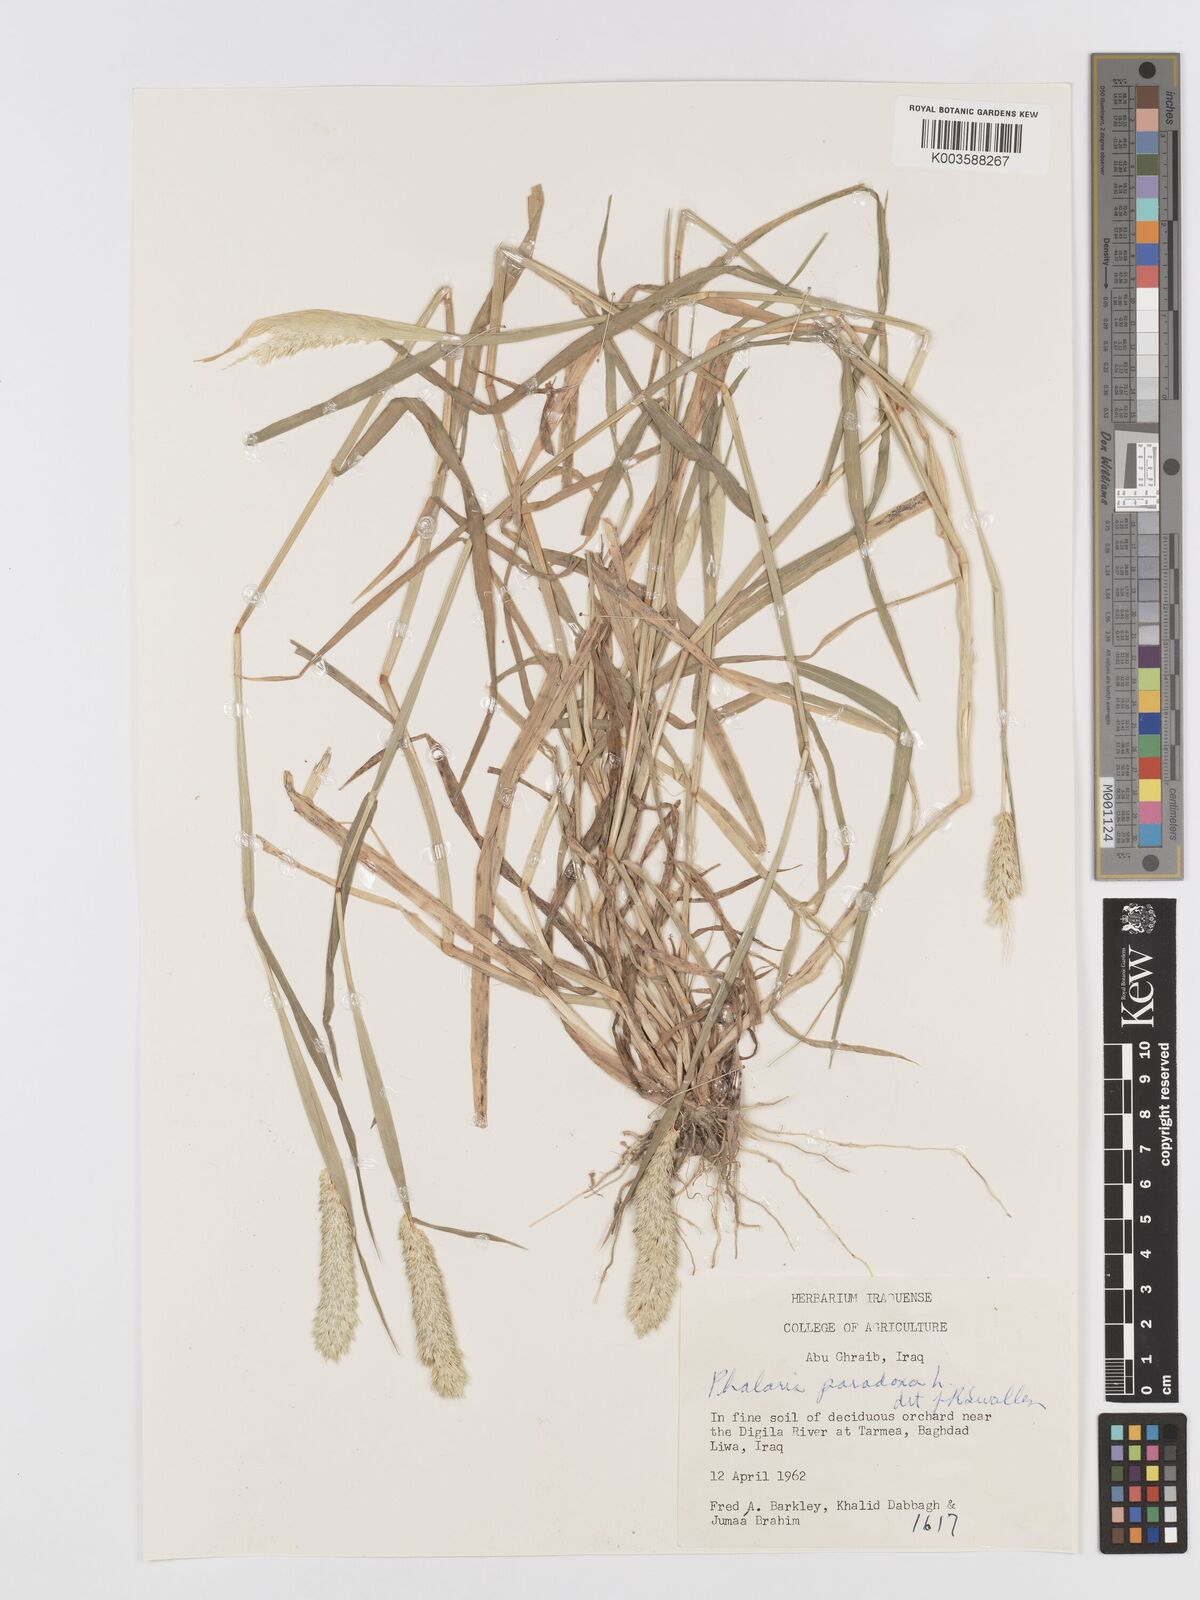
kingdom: Plantae
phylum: Tracheophyta
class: Liliopsida
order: Poales
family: Poaceae
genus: Phalaris
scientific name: Phalaris paradoxa
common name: Awned canary-grass
